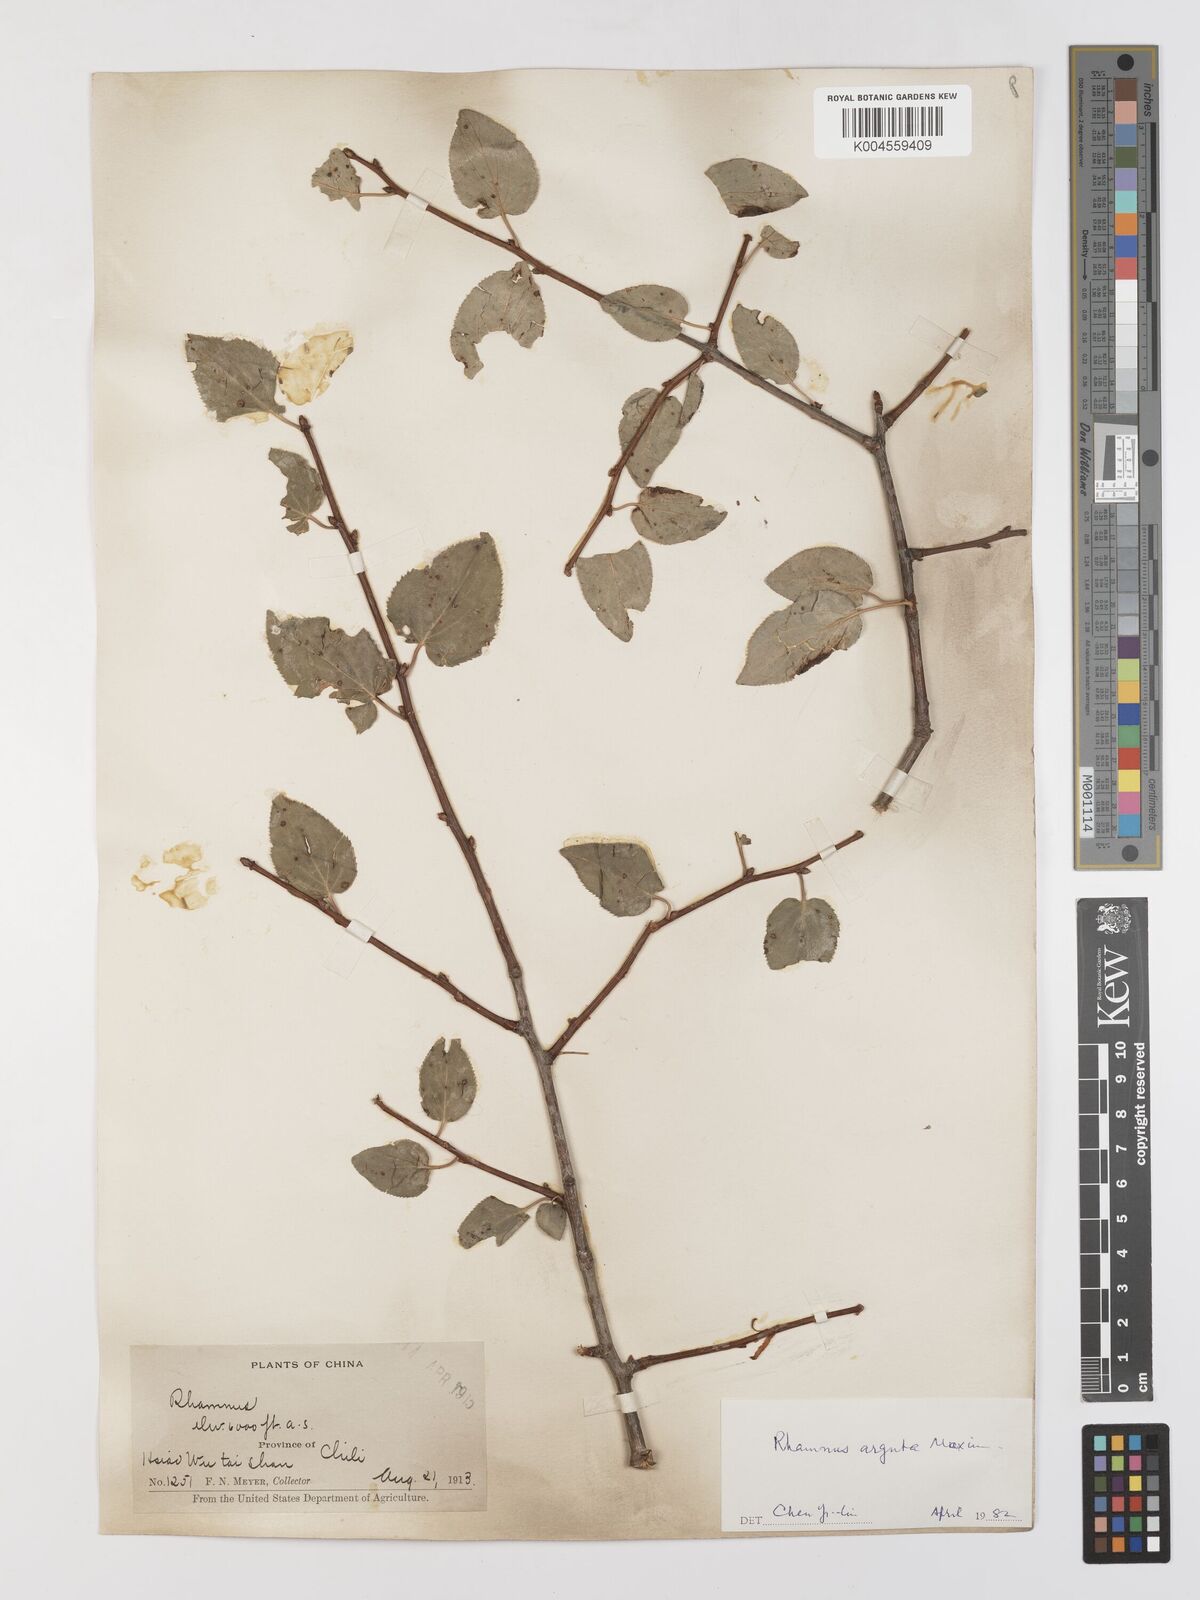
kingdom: Plantae
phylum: Tracheophyta
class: Magnoliopsida
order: Rosales
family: Rhamnaceae
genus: Rhamnus
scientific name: Rhamnus arguta
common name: Sharp-tooth buckthorn
